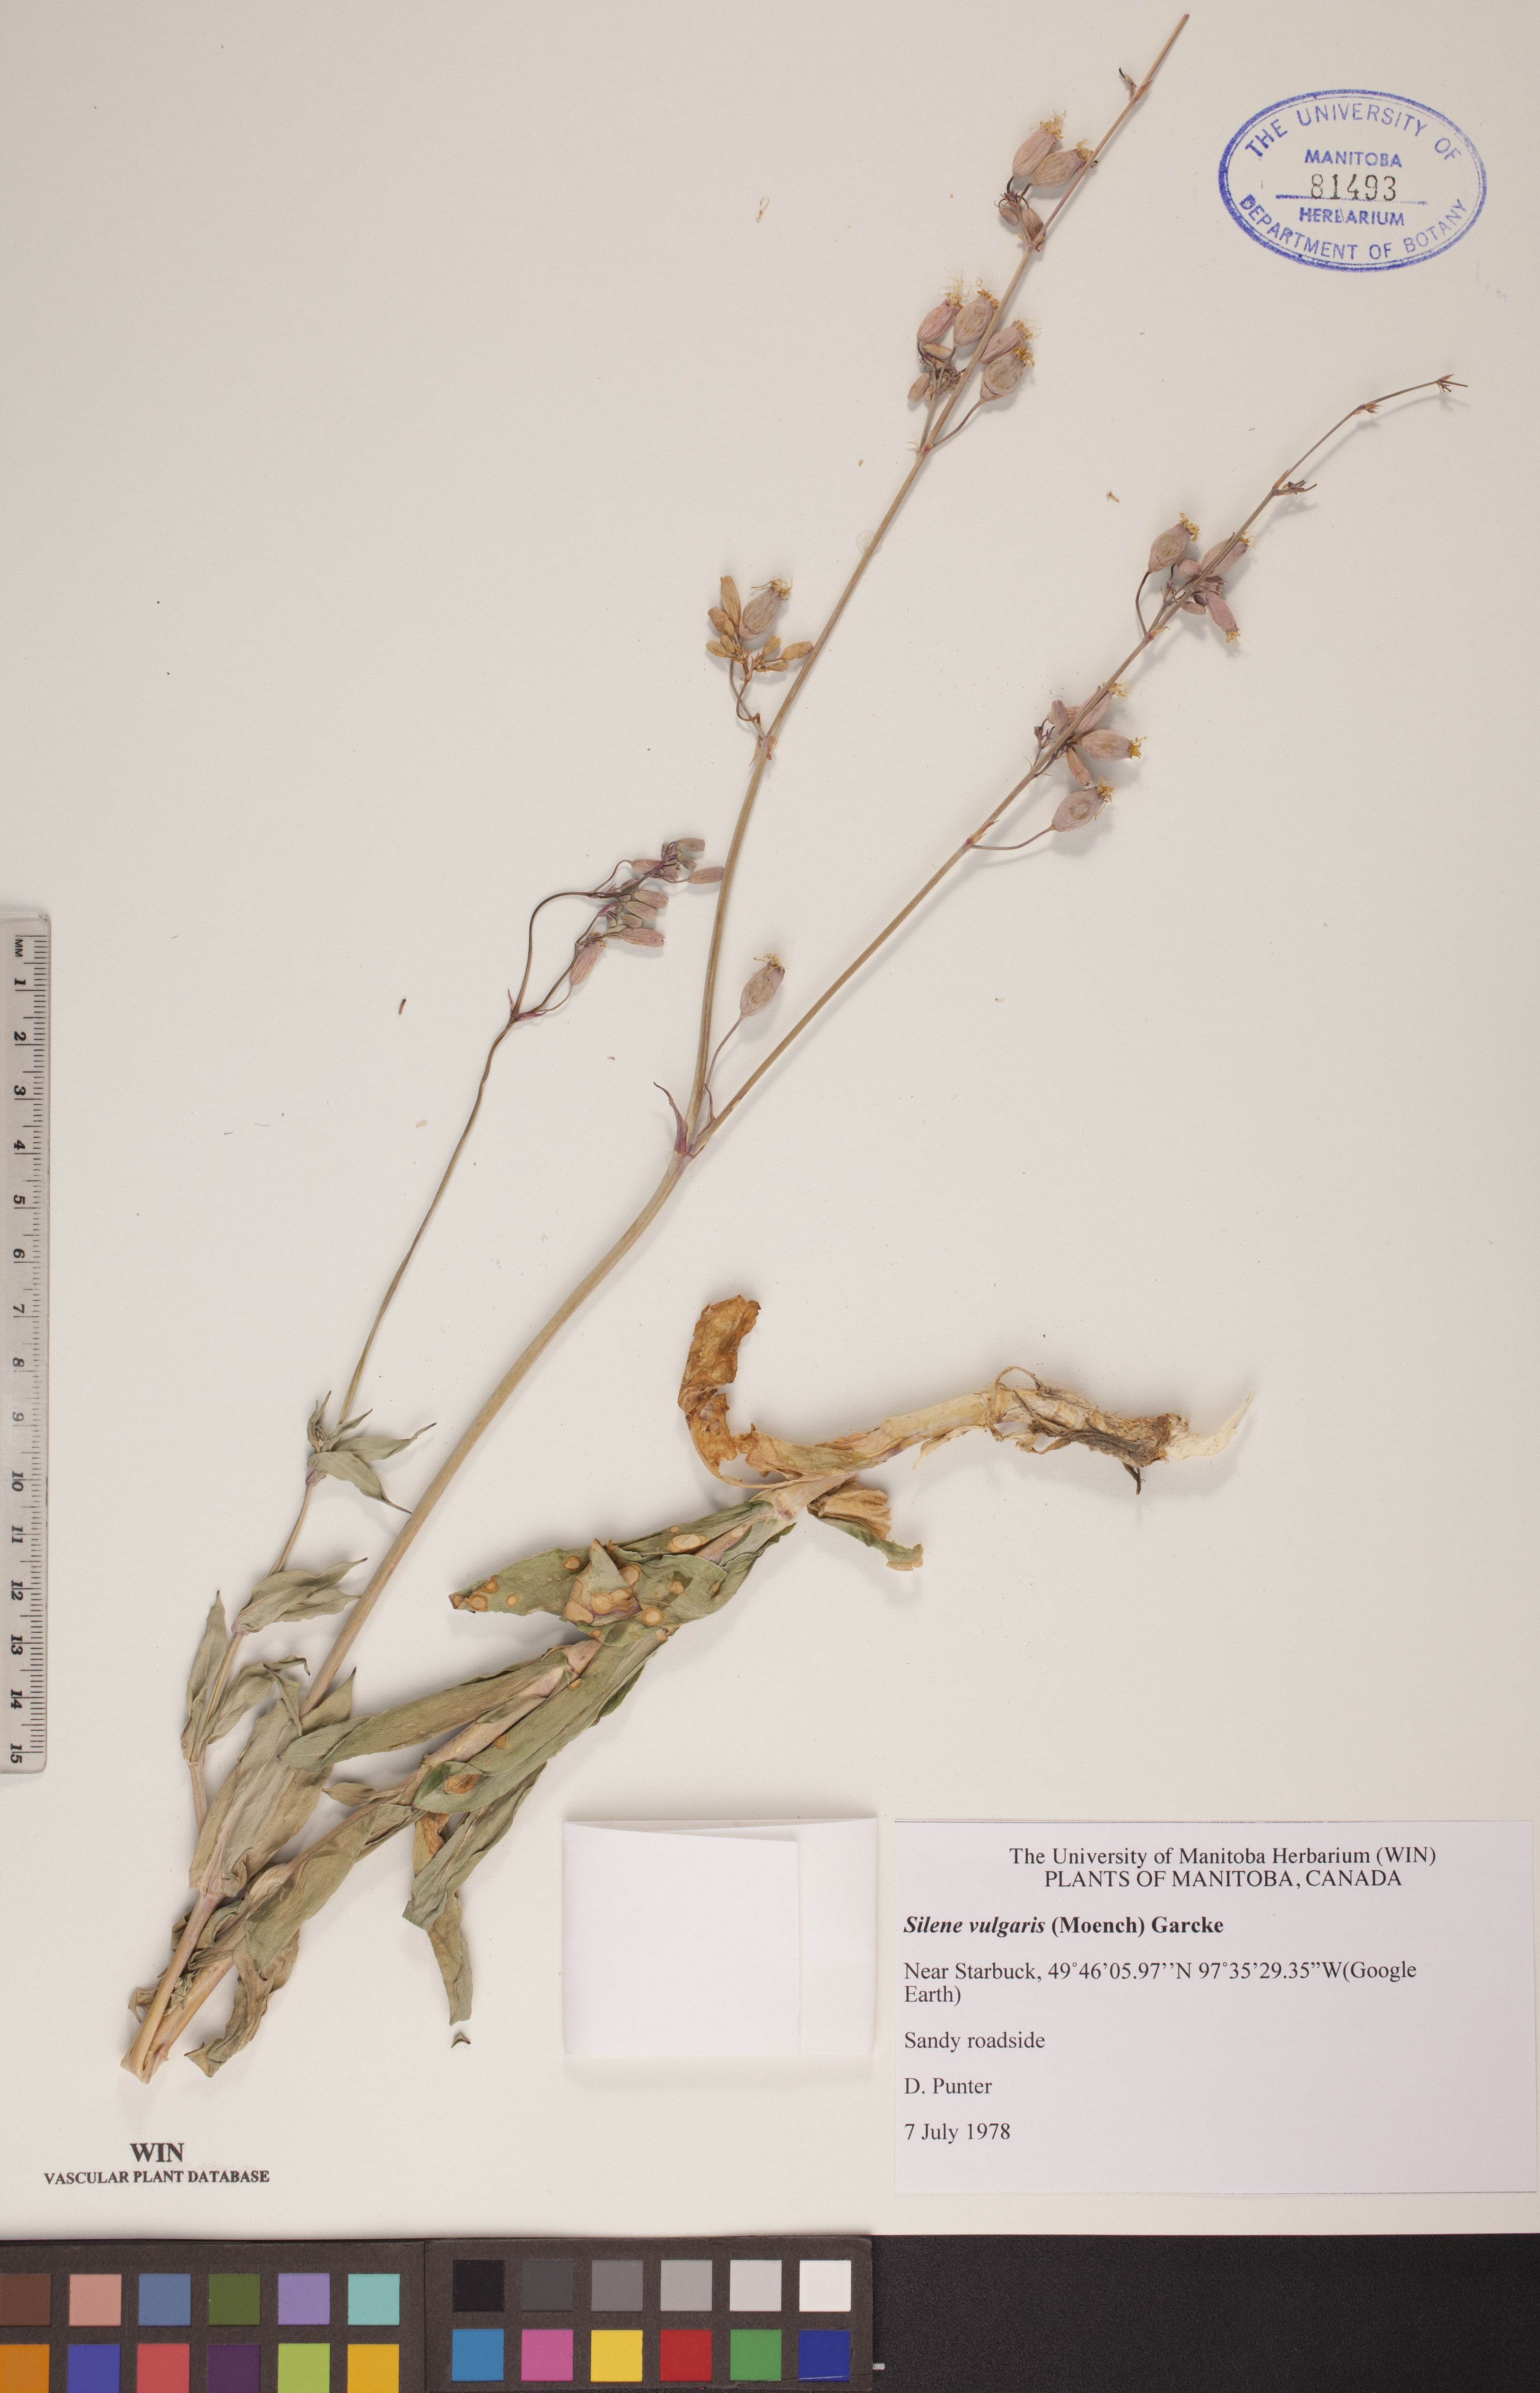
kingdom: Plantae
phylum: Tracheophyta
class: Magnoliopsida
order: Caryophyllales
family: Caryophyllaceae
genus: Silene
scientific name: Silene csereii
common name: Balkan catchfly
